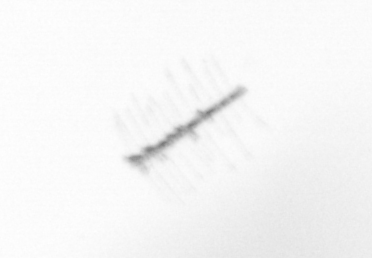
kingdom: Chromista
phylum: Ochrophyta
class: Bacillariophyceae
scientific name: Bacillariophyceae
